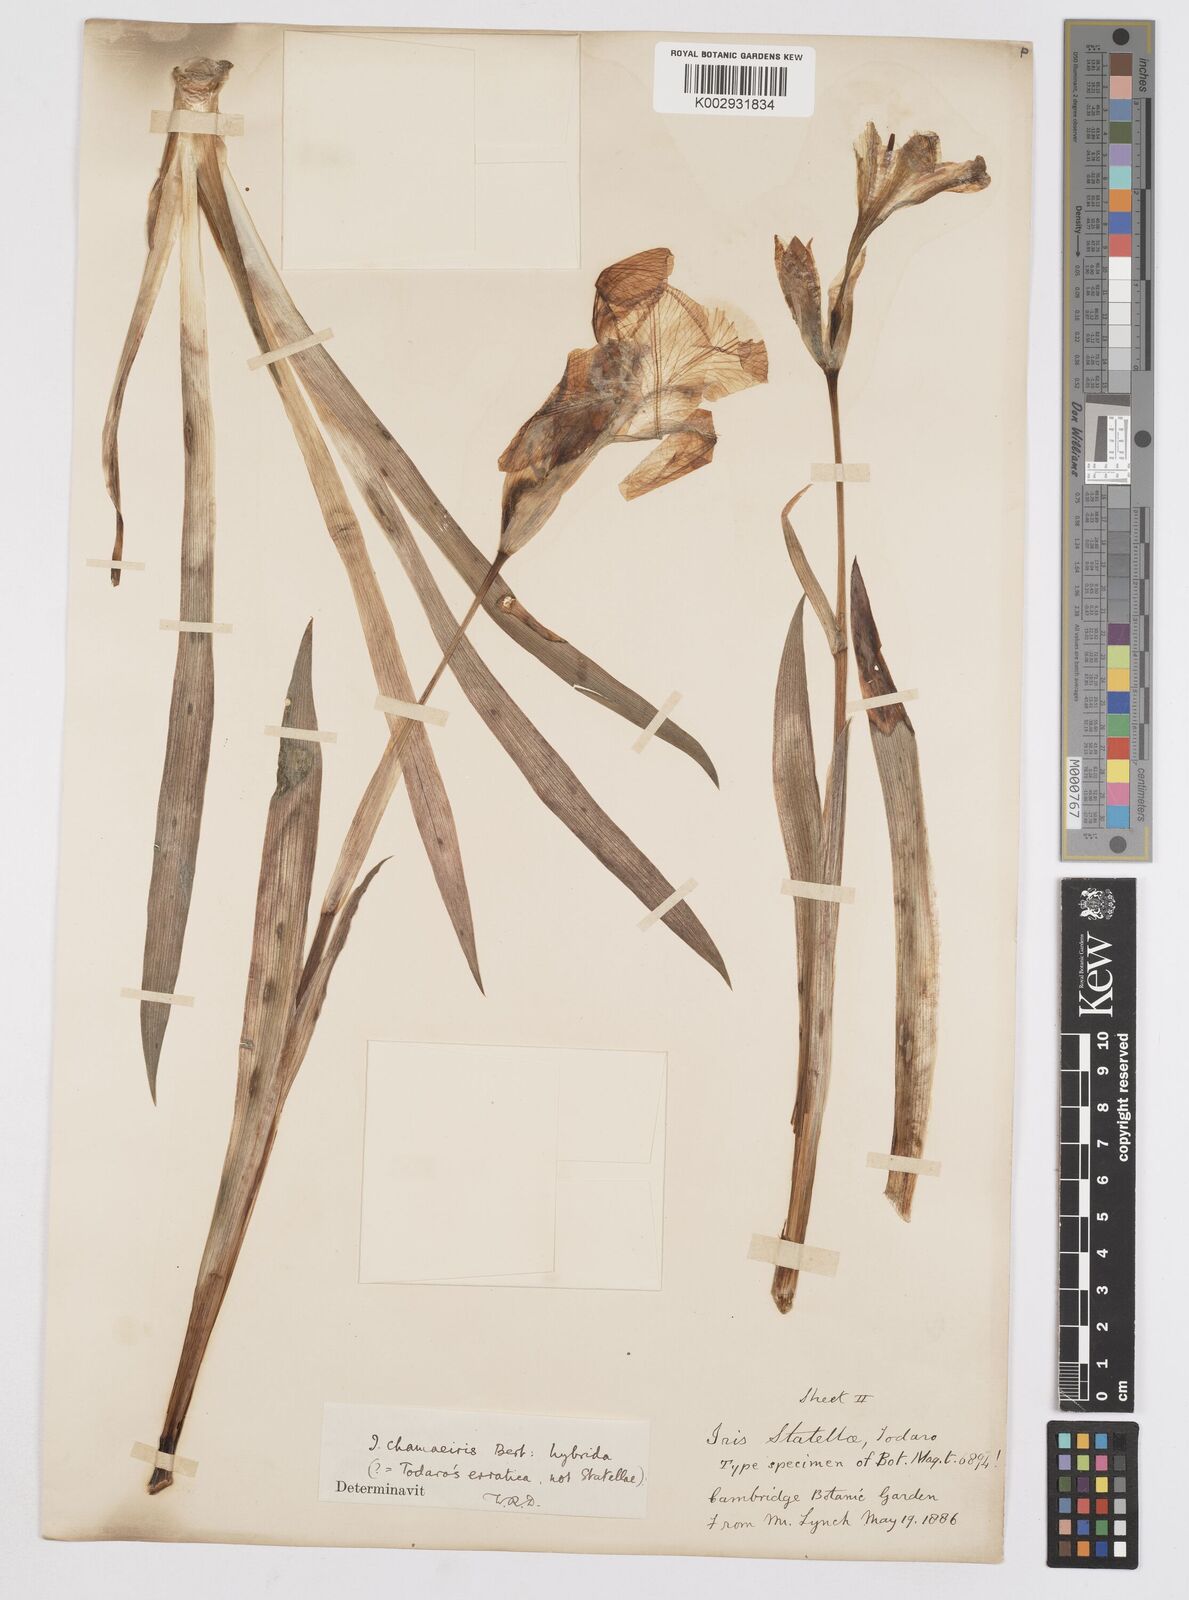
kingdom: Plantae
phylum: Tracheophyta
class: Liliopsida
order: Asparagales
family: Iridaceae
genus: Iris
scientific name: Iris lutescens
